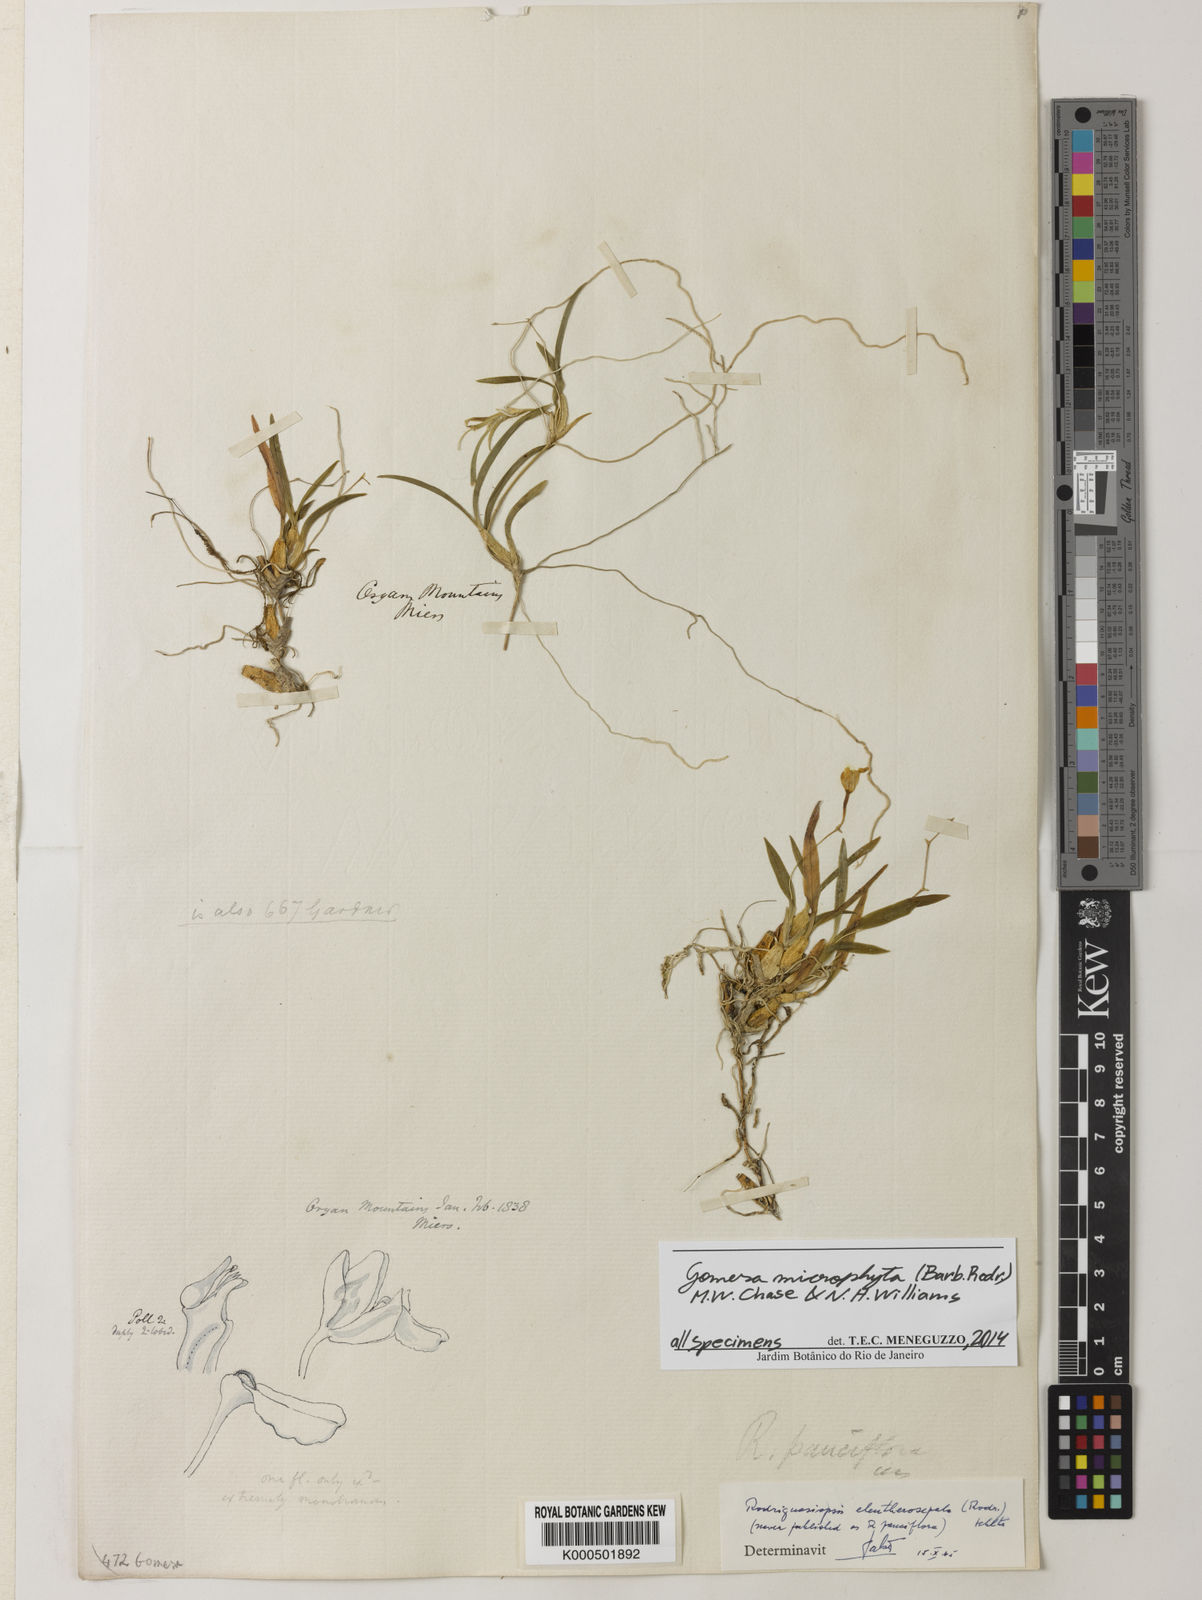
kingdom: Plantae
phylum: Tracheophyta
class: Liliopsida
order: Asparagales
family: Orchidaceae
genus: Gomesa
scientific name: Gomesa microphyta
